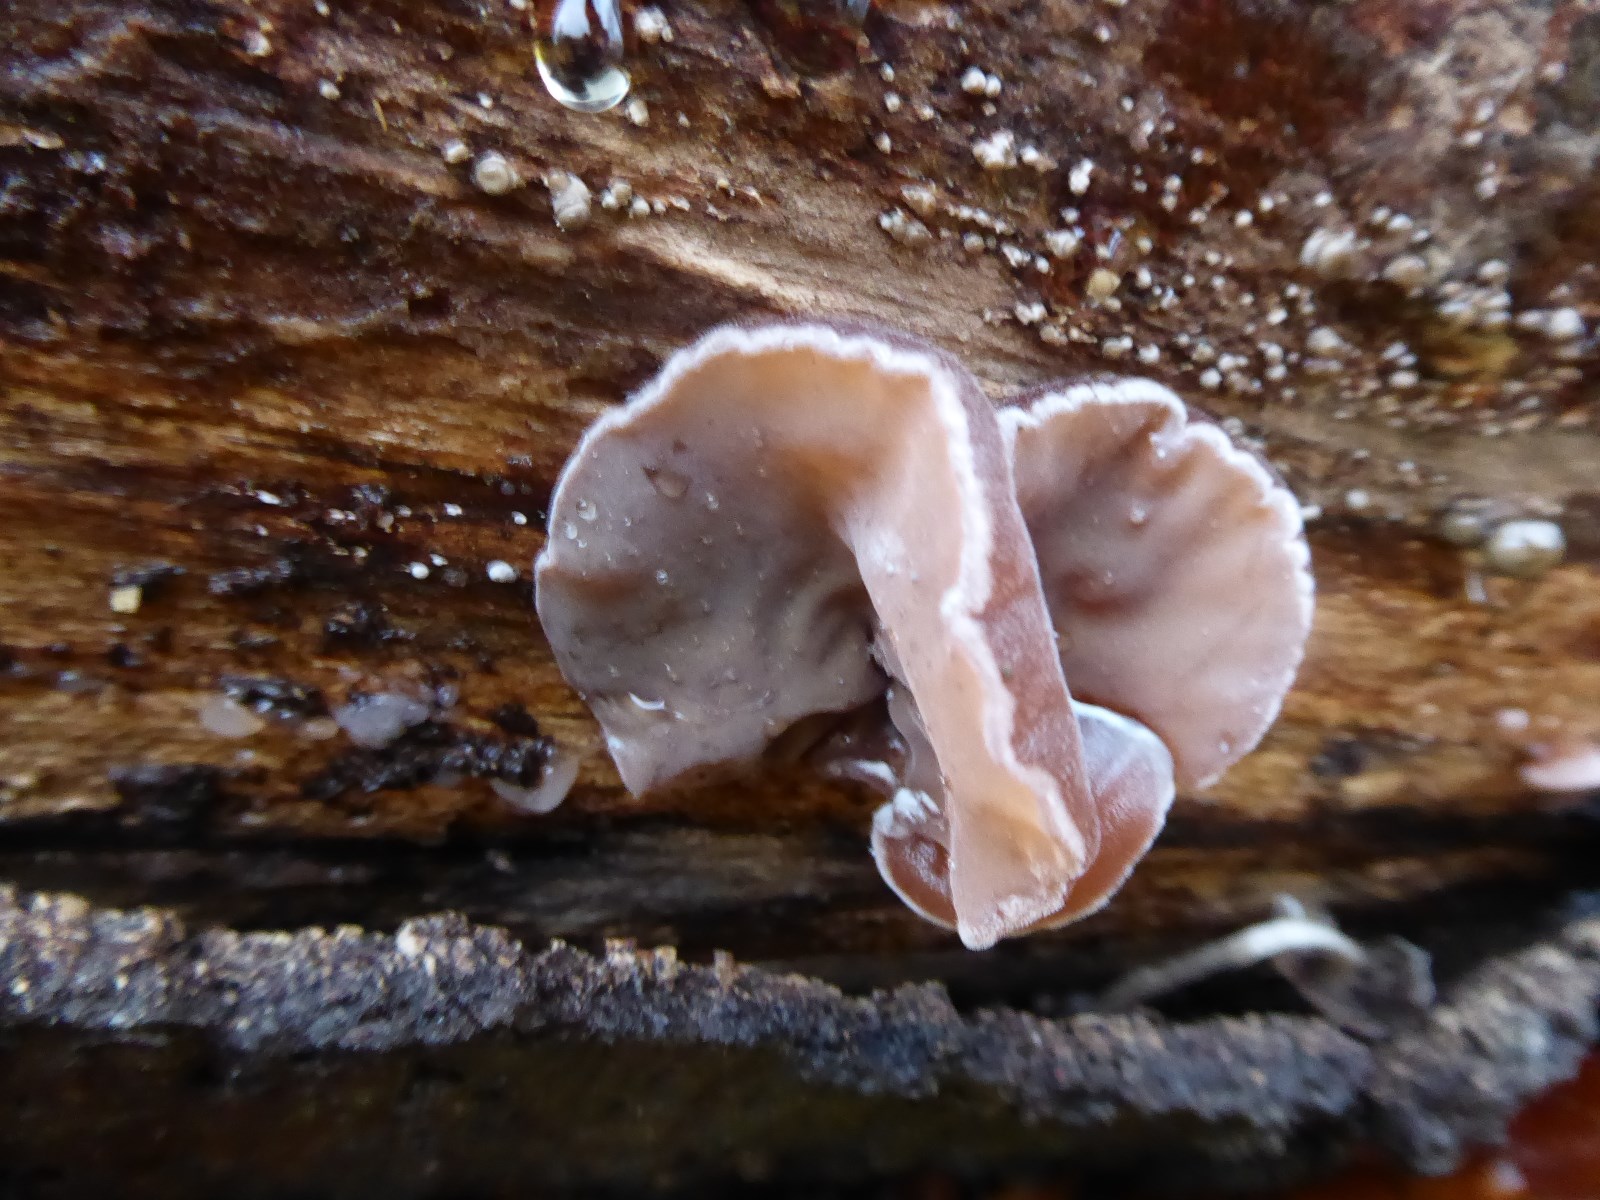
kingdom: Fungi
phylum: Basidiomycota
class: Agaricomycetes
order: Auriculariales
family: Auriculariaceae
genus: Auricularia
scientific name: Auricularia auricula-judae
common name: almindelig judasøre
